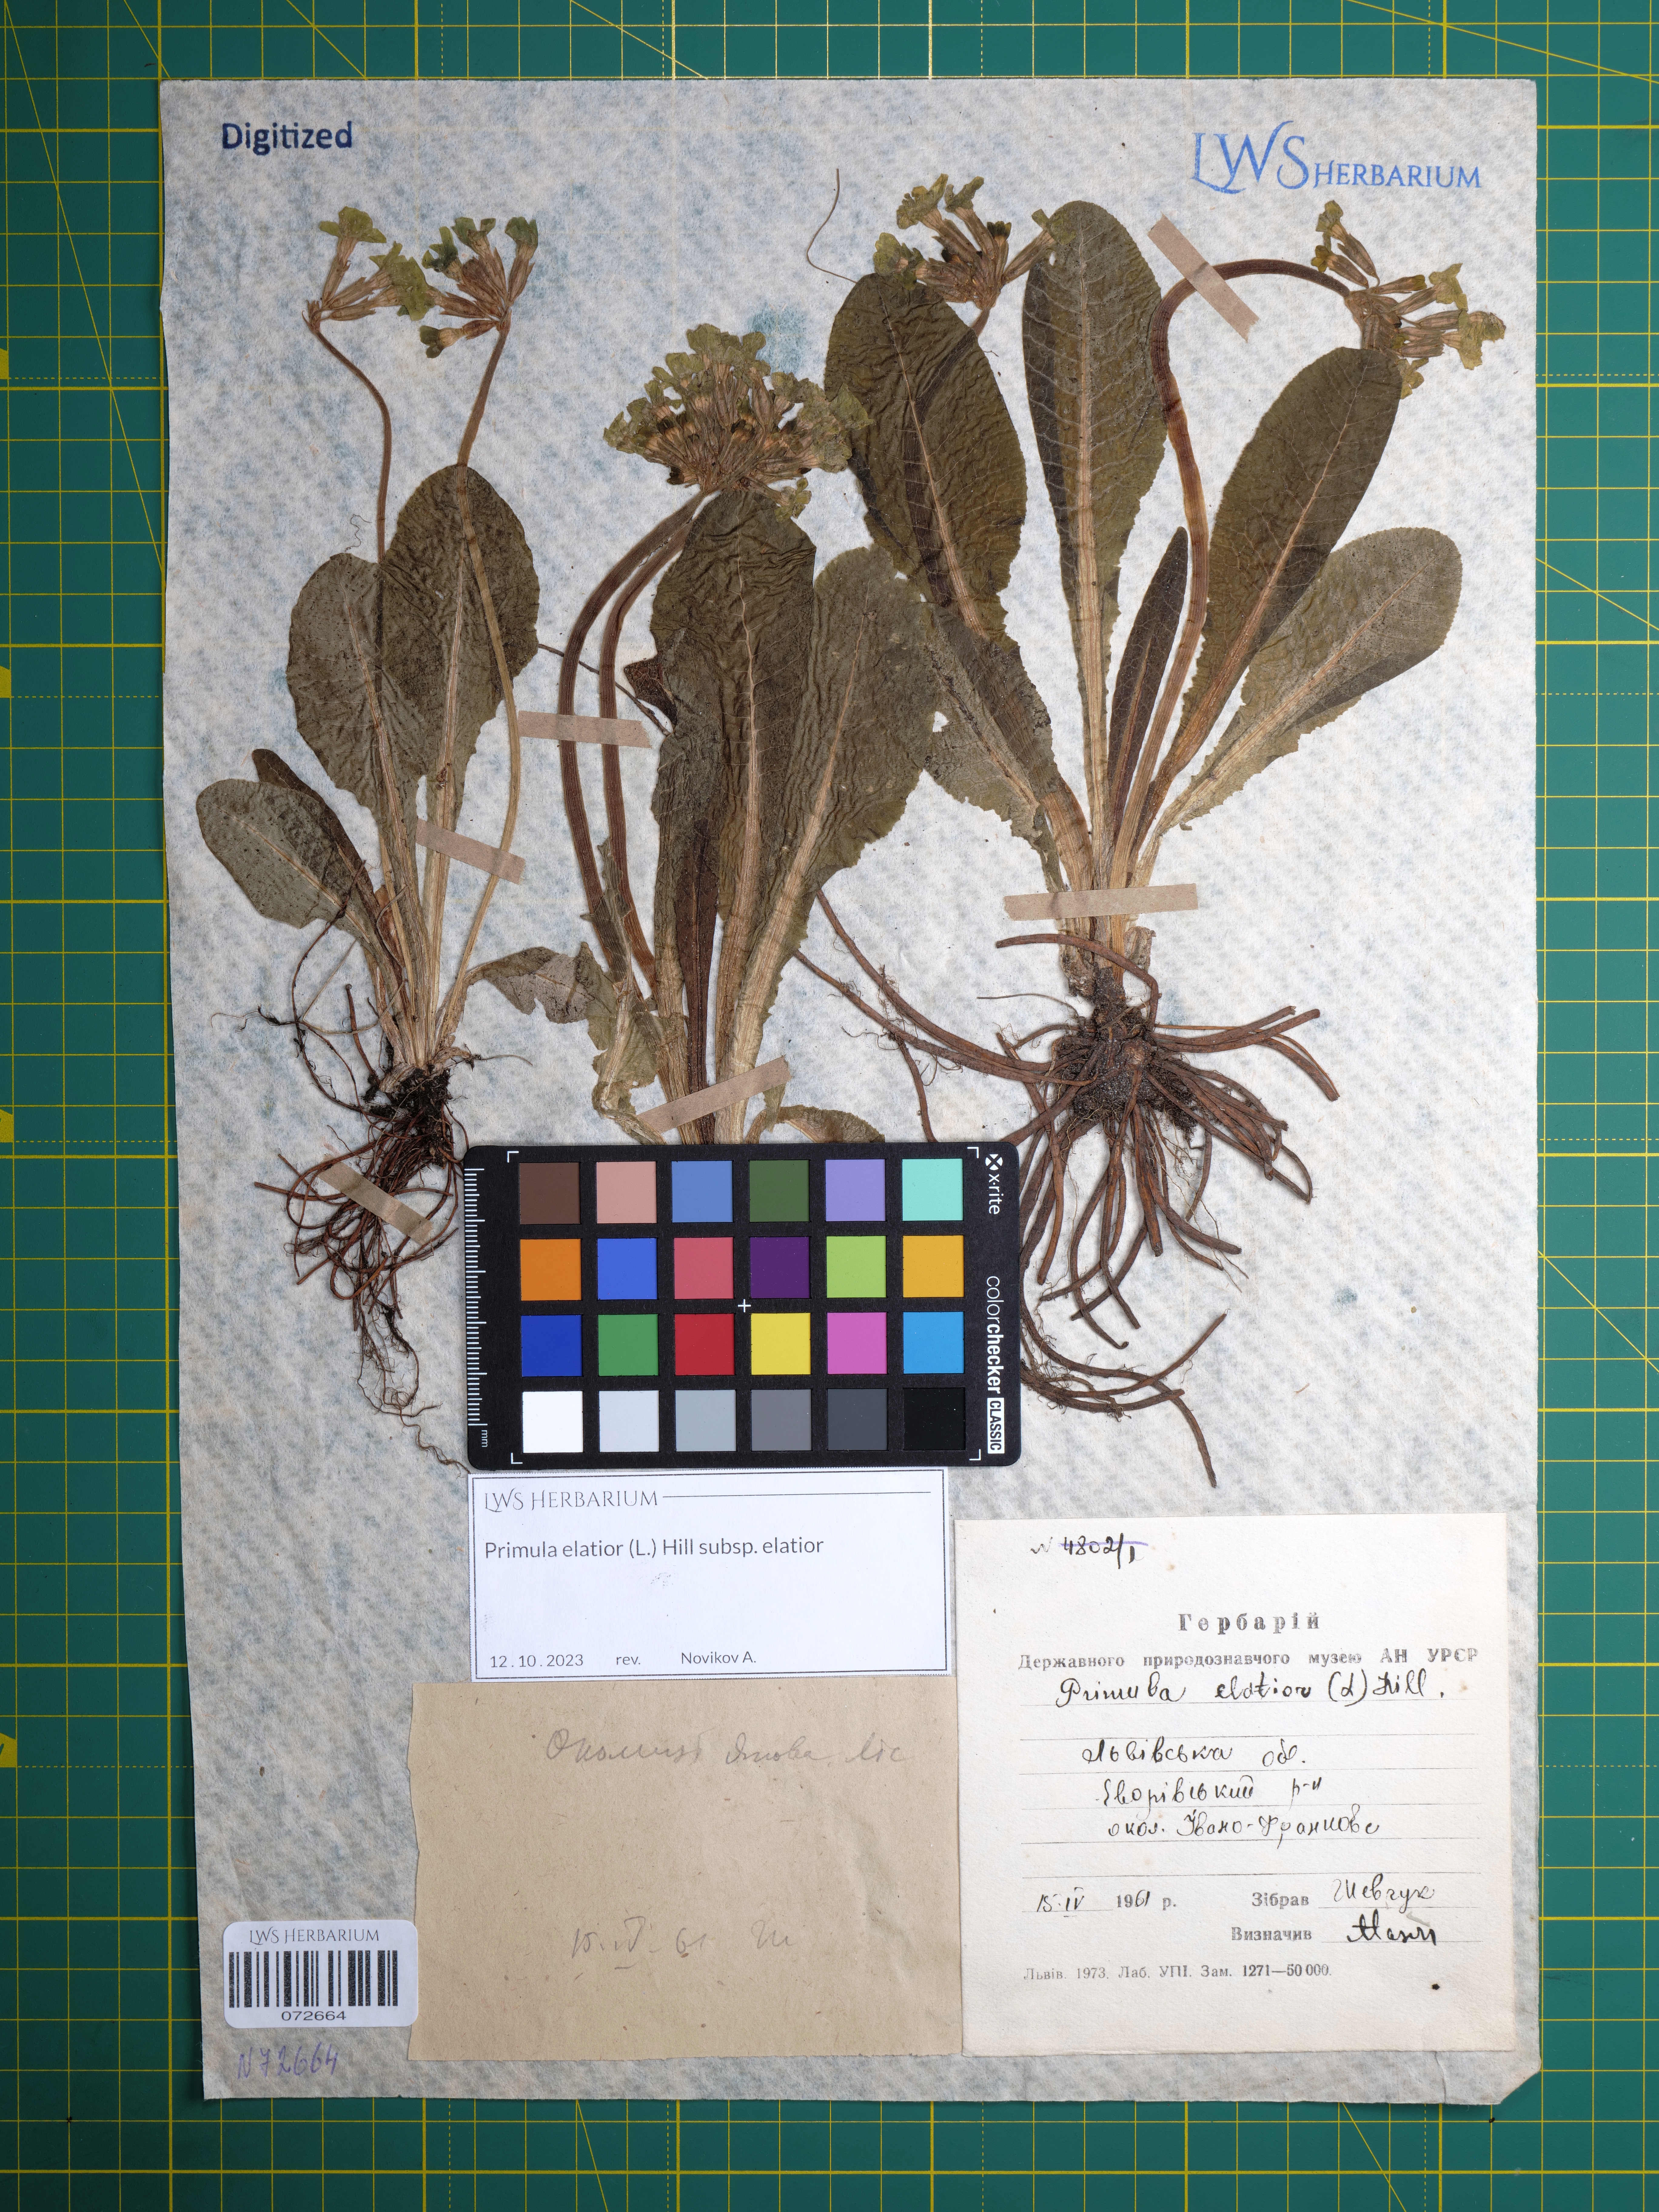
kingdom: Plantae
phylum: Tracheophyta
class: Magnoliopsida
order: Ericales
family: Primulaceae
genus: Primula
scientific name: Primula elatior
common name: Oxlip
